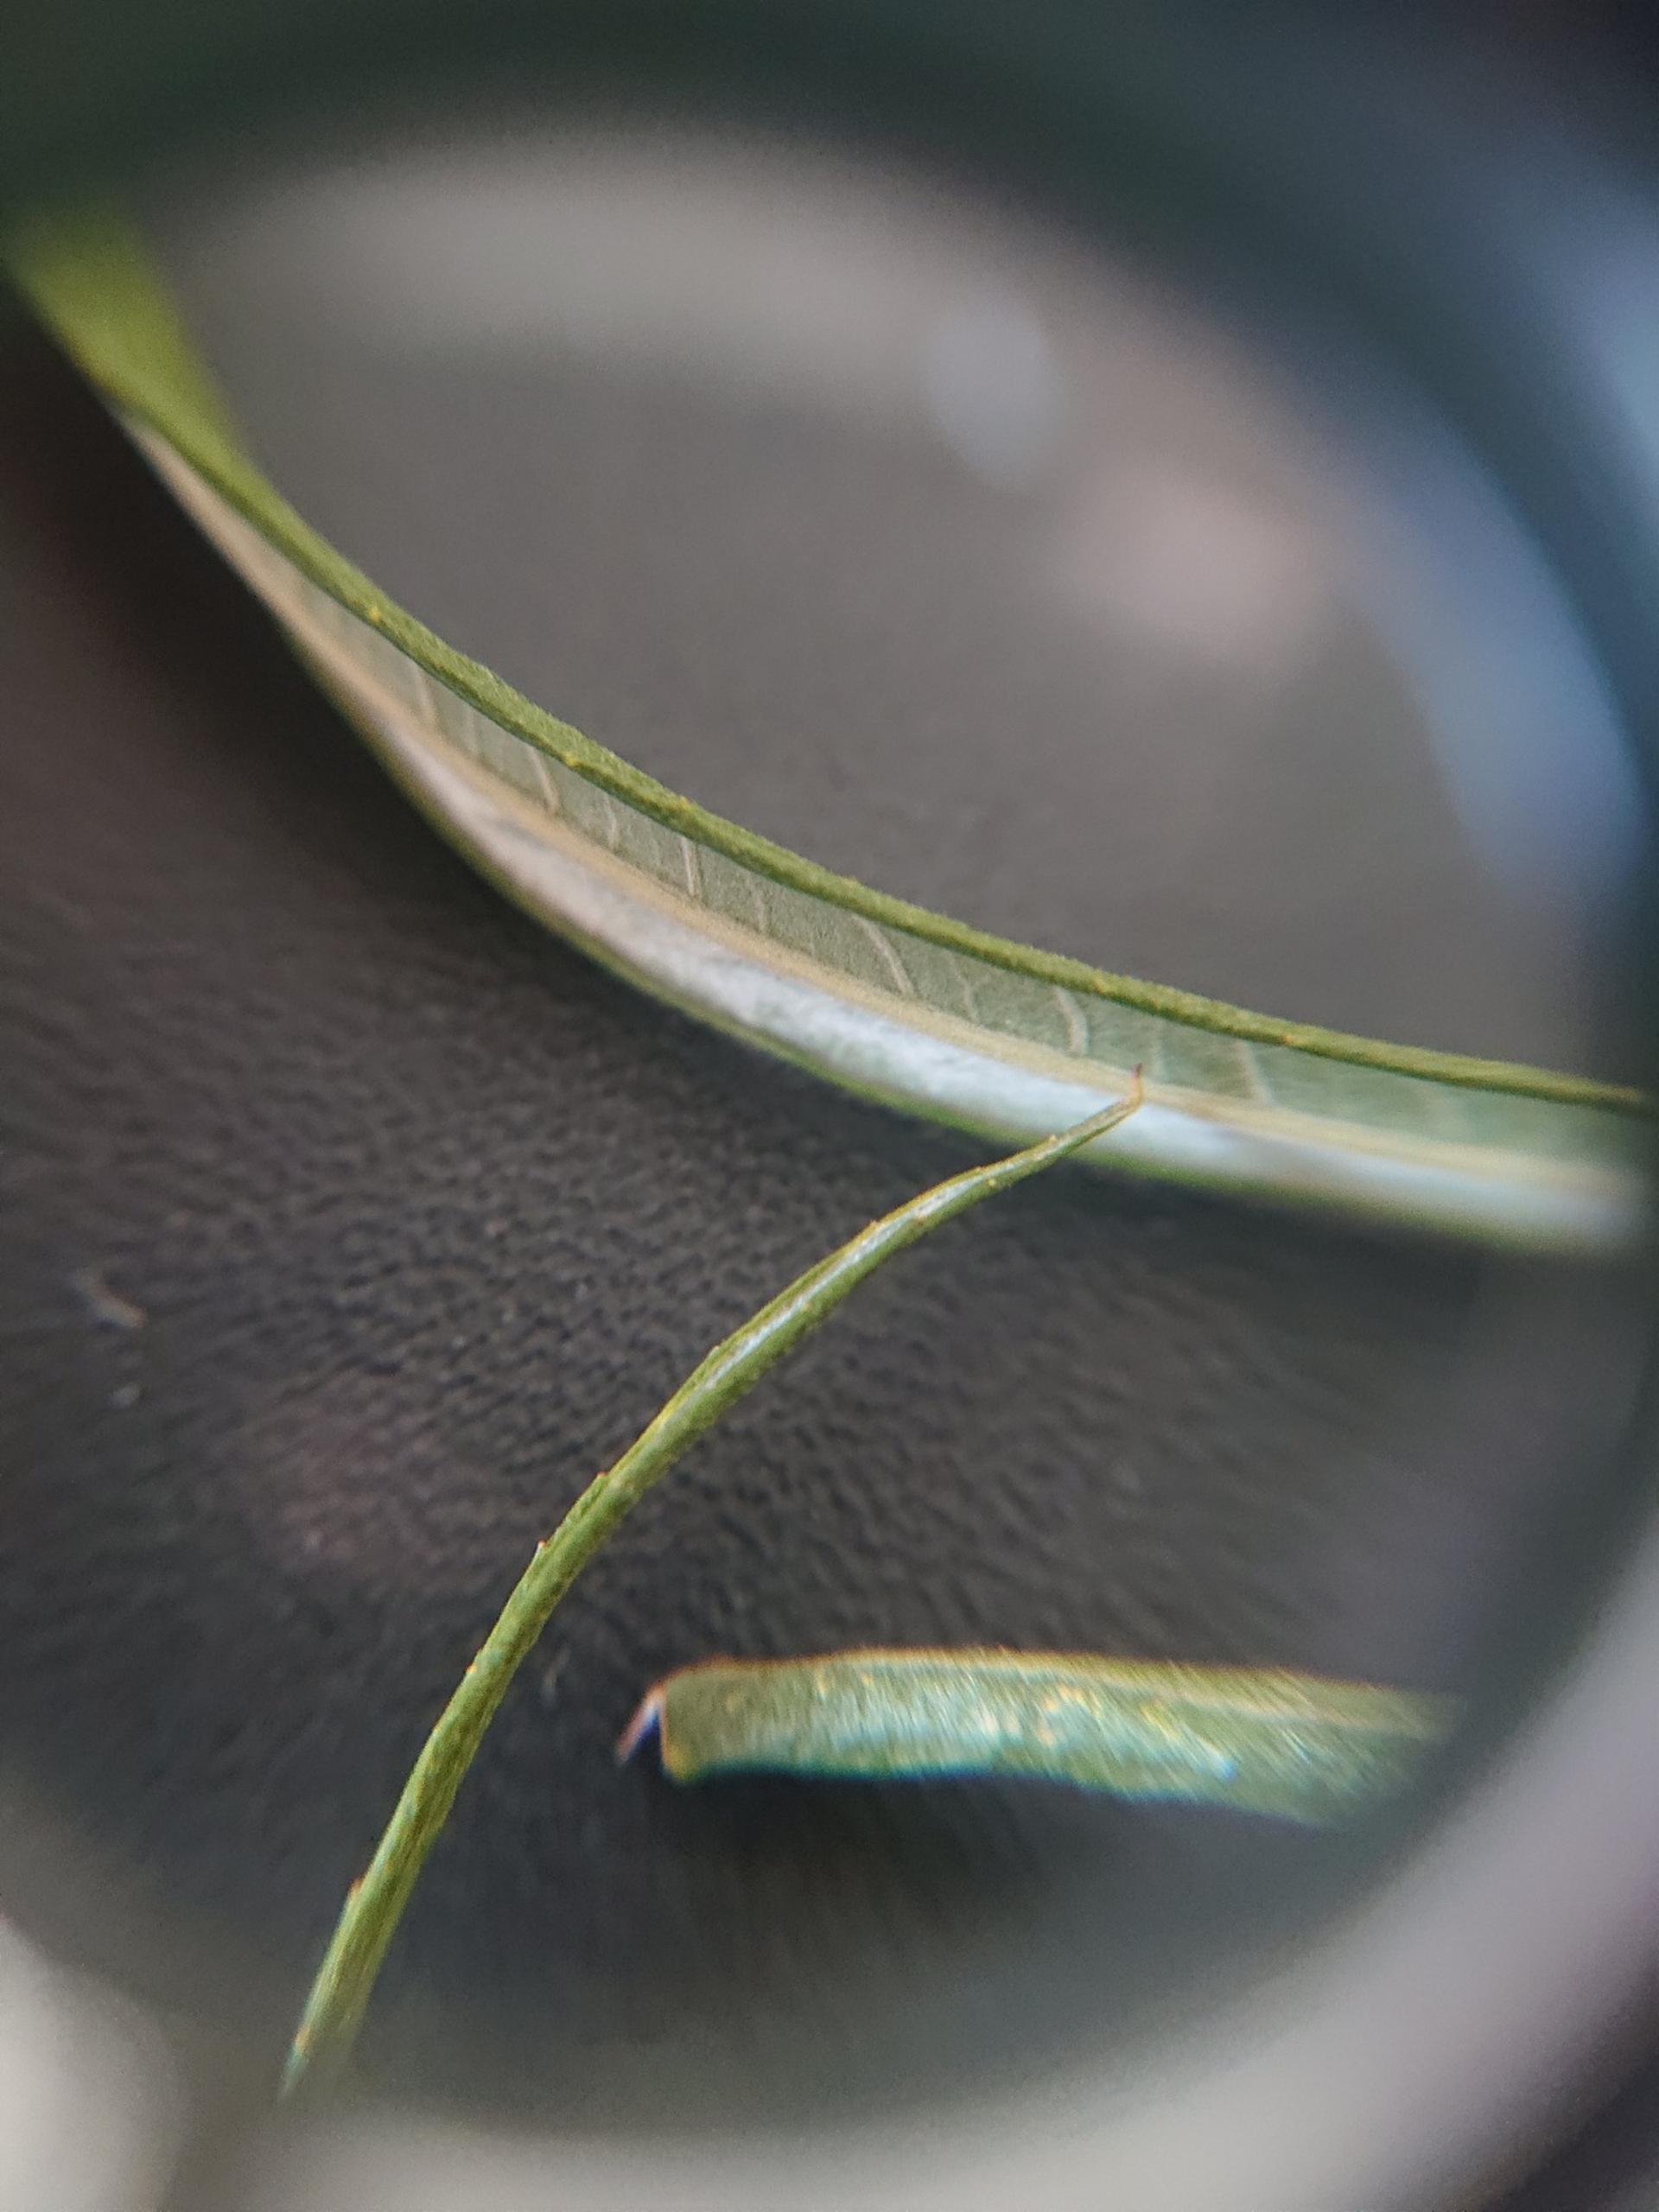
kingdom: Plantae
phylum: Tracheophyta
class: Magnoliopsida
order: Malpighiales
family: Salicaceae
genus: Salix
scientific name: Salix viminalis
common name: Bånd-pil
